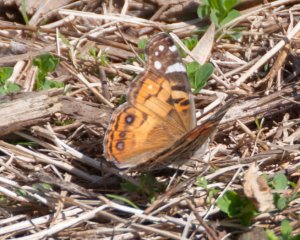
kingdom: Animalia
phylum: Arthropoda
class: Insecta
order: Lepidoptera
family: Nymphalidae
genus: Vanessa
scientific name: Vanessa virginiensis
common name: American Lady
